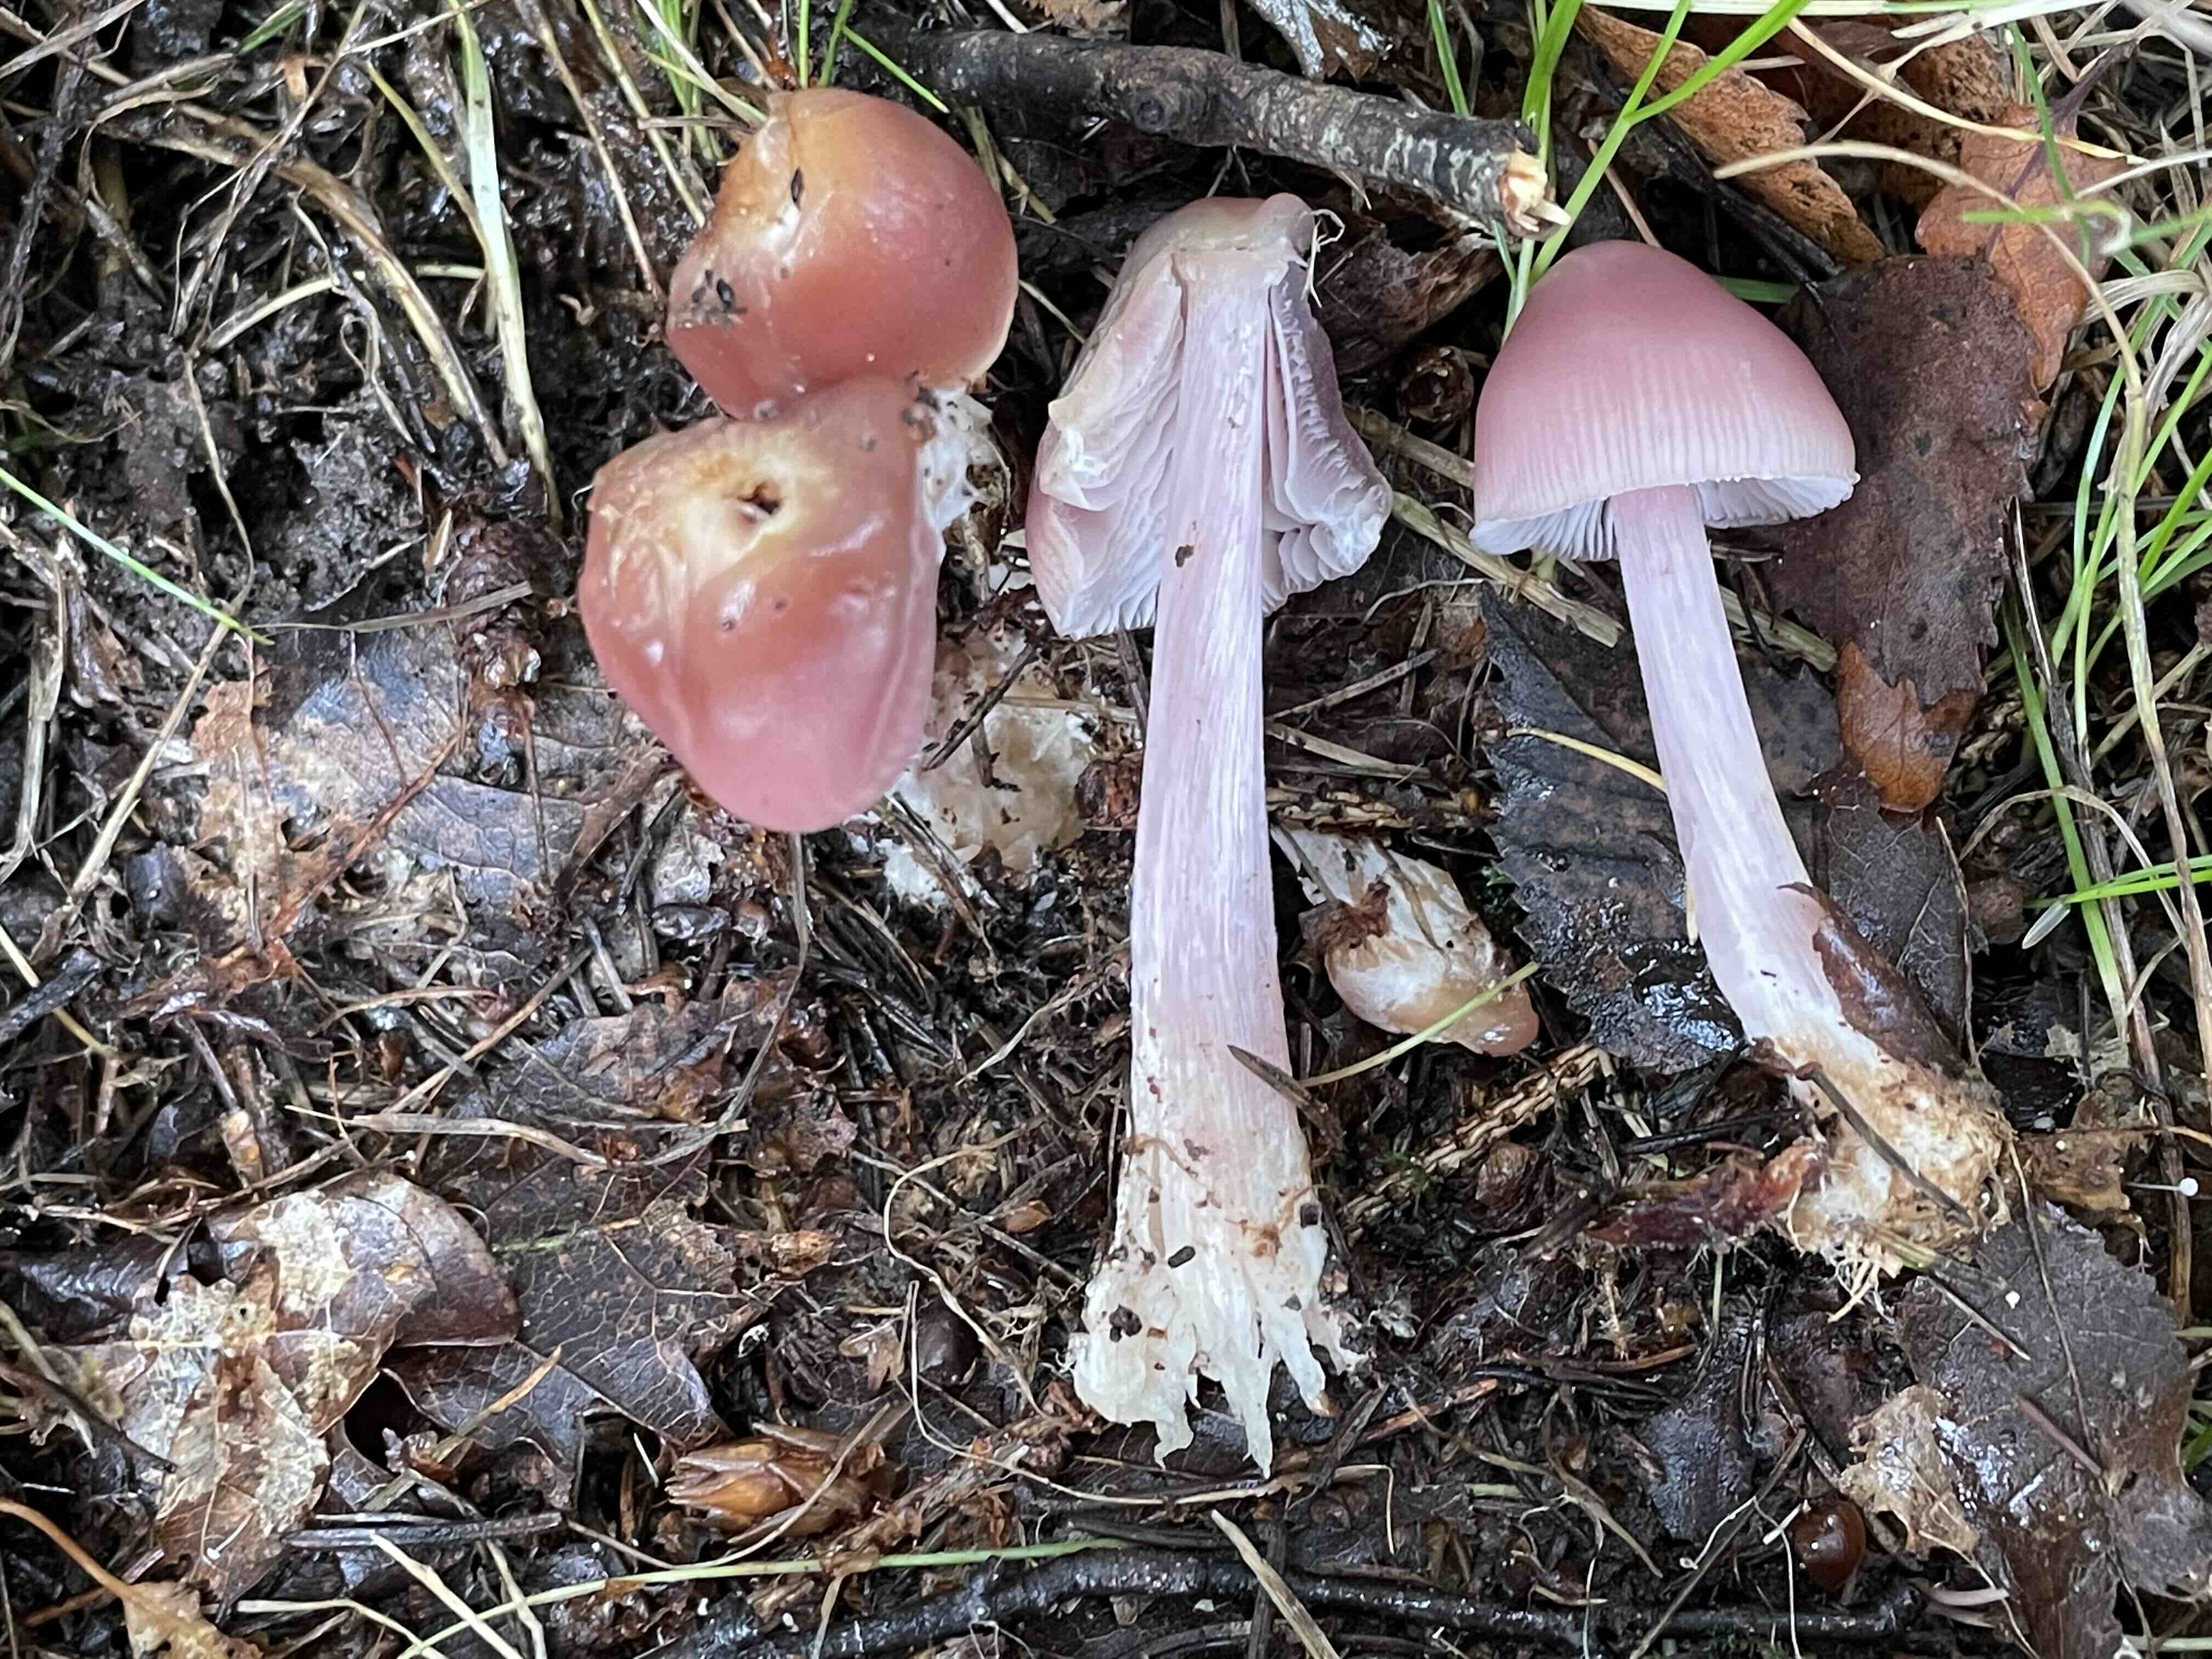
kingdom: Fungi
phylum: Basidiomycota
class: Agaricomycetes
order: Agaricales
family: Mycenaceae
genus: Mycena
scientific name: Mycena rosea
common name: rosa huesvamp
